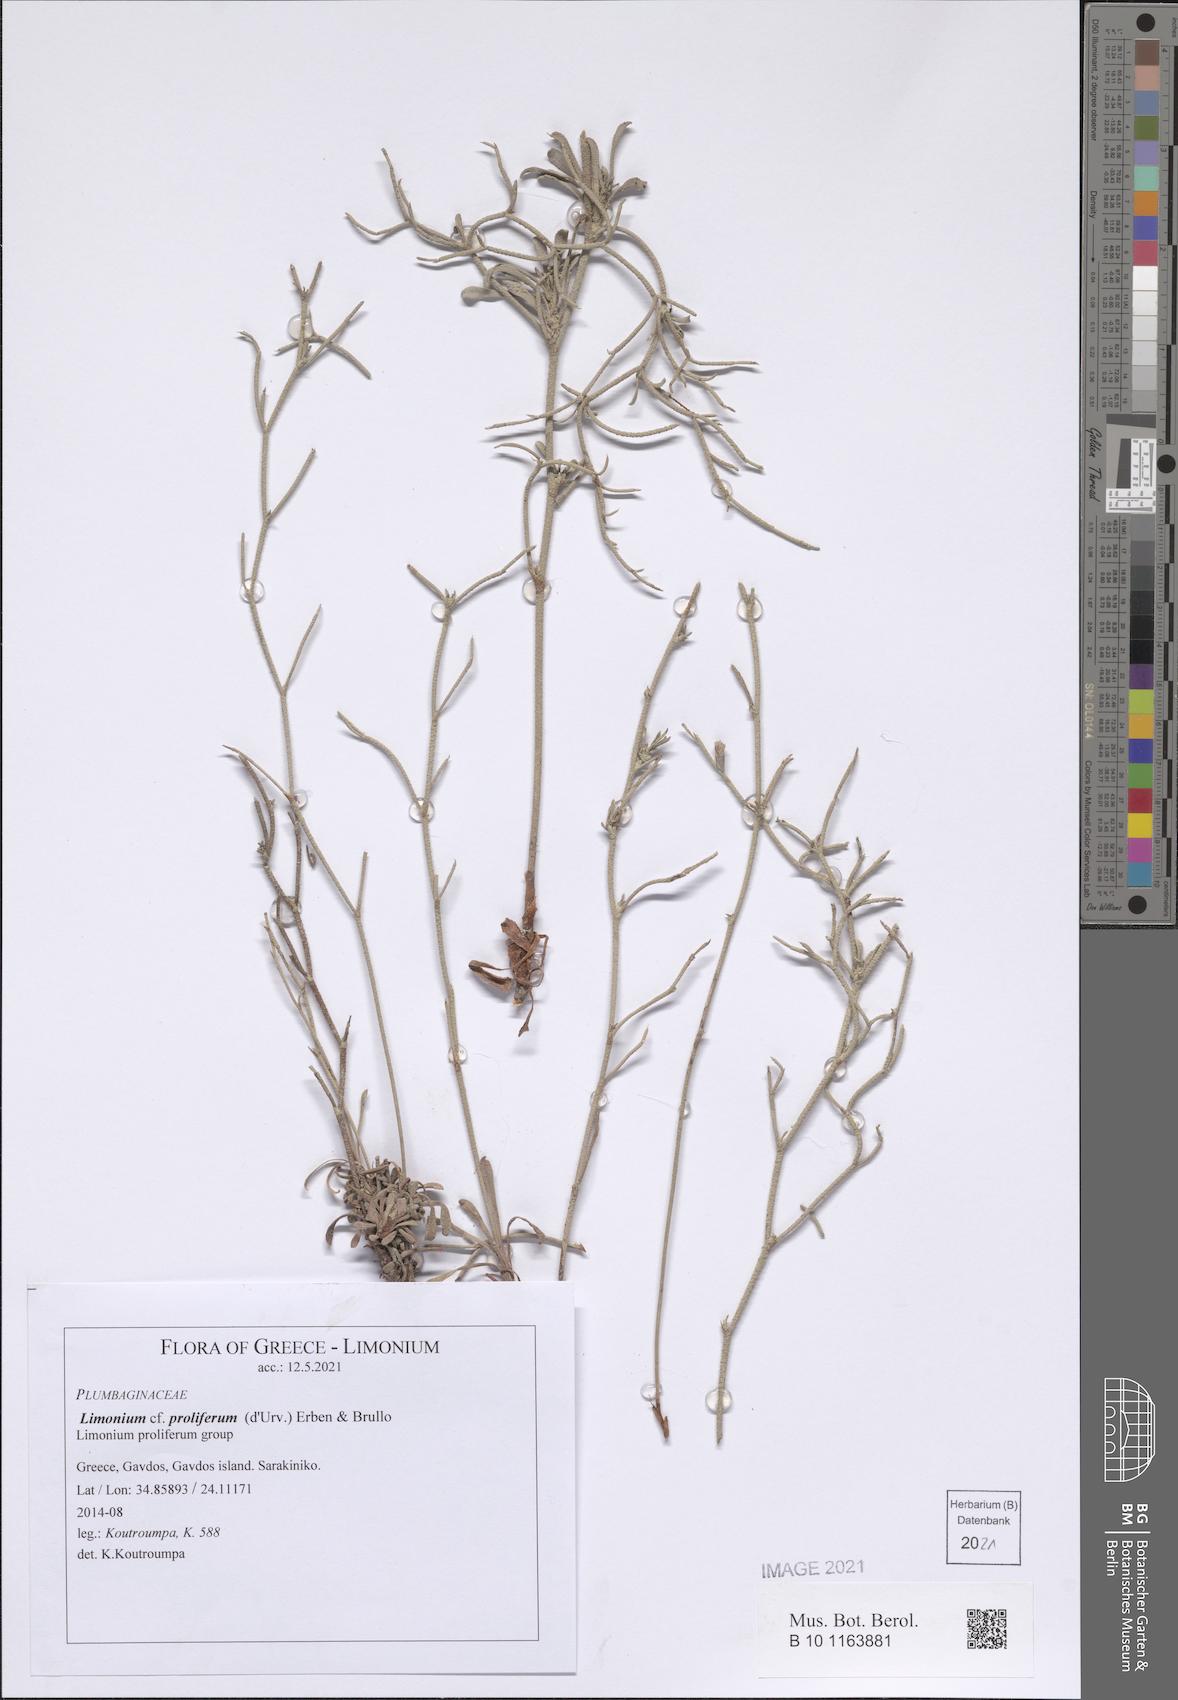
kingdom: Plantae
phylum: Tracheophyta
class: Magnoliopsida
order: Caryophyllales
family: Plumbaginaceae
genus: Limonium
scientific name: Limonium proliferum
